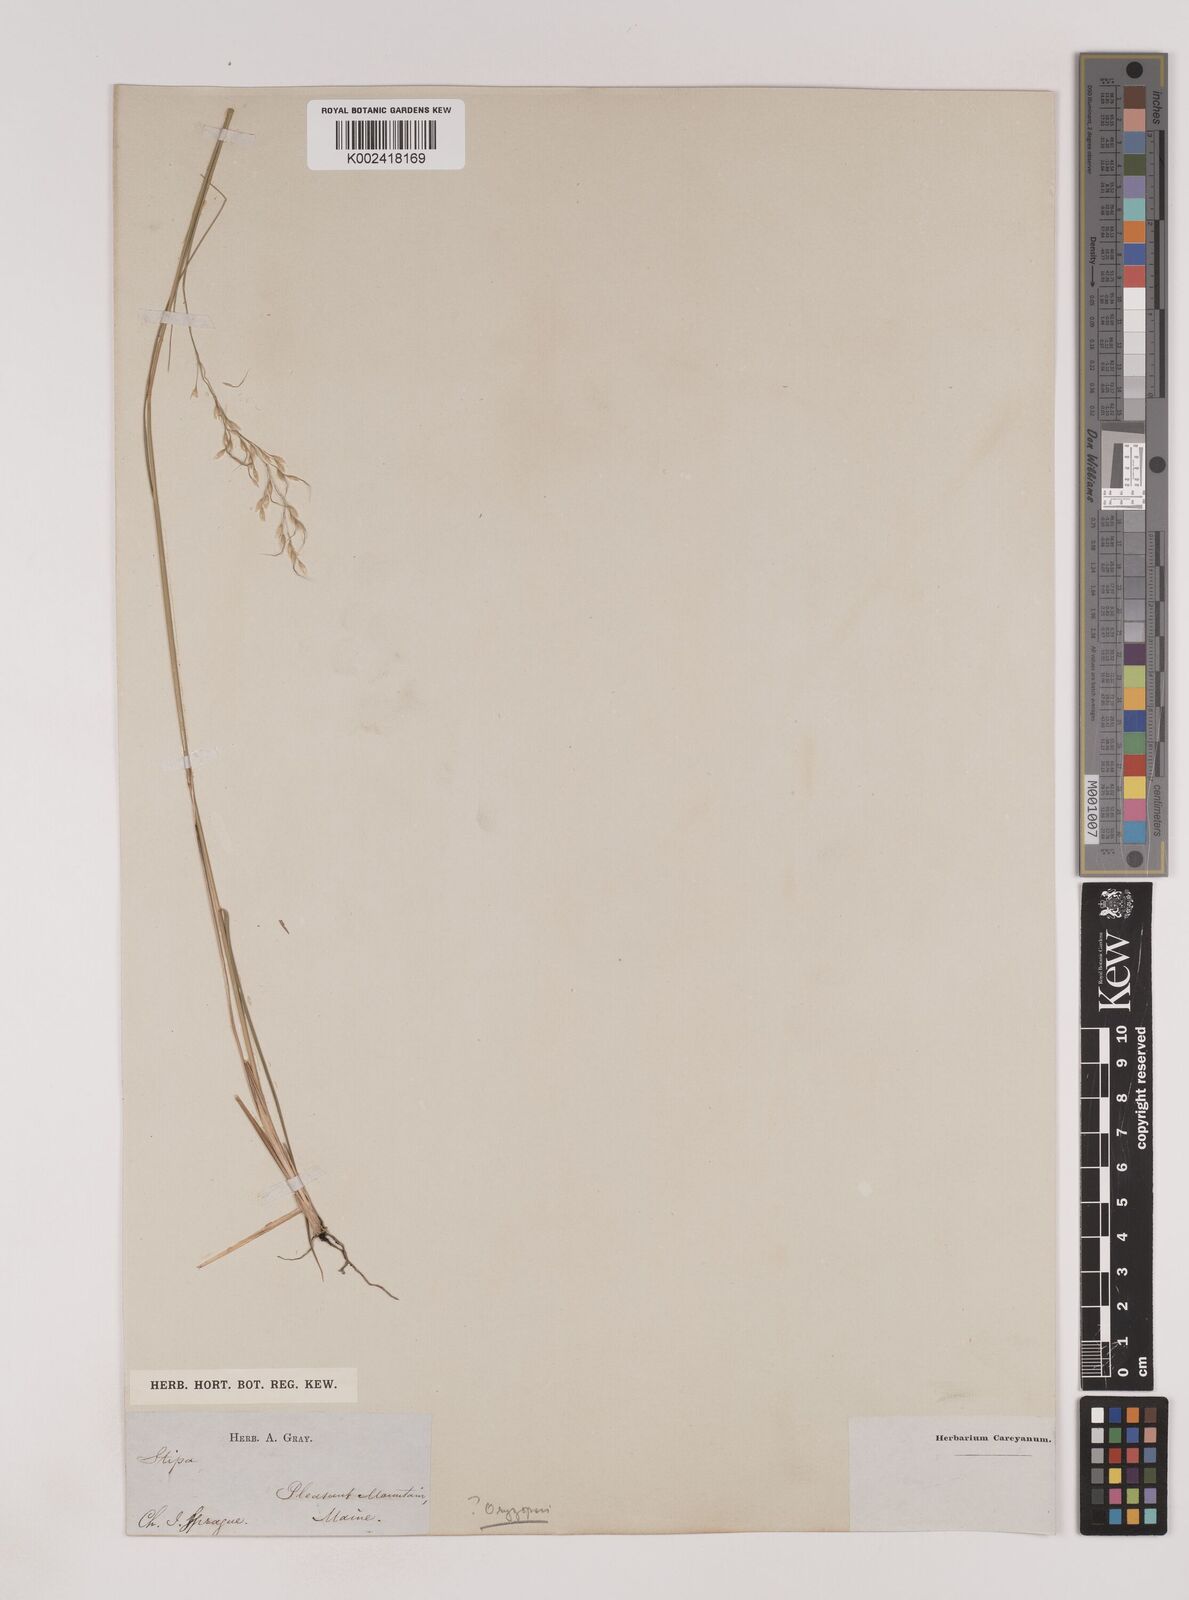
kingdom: Plantae
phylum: Tracheophyta
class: Liliopsida
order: Poales
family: Poaceae
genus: Piptatheropsis
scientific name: Piptatheropsis exigua
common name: Little mountain ricegrass
